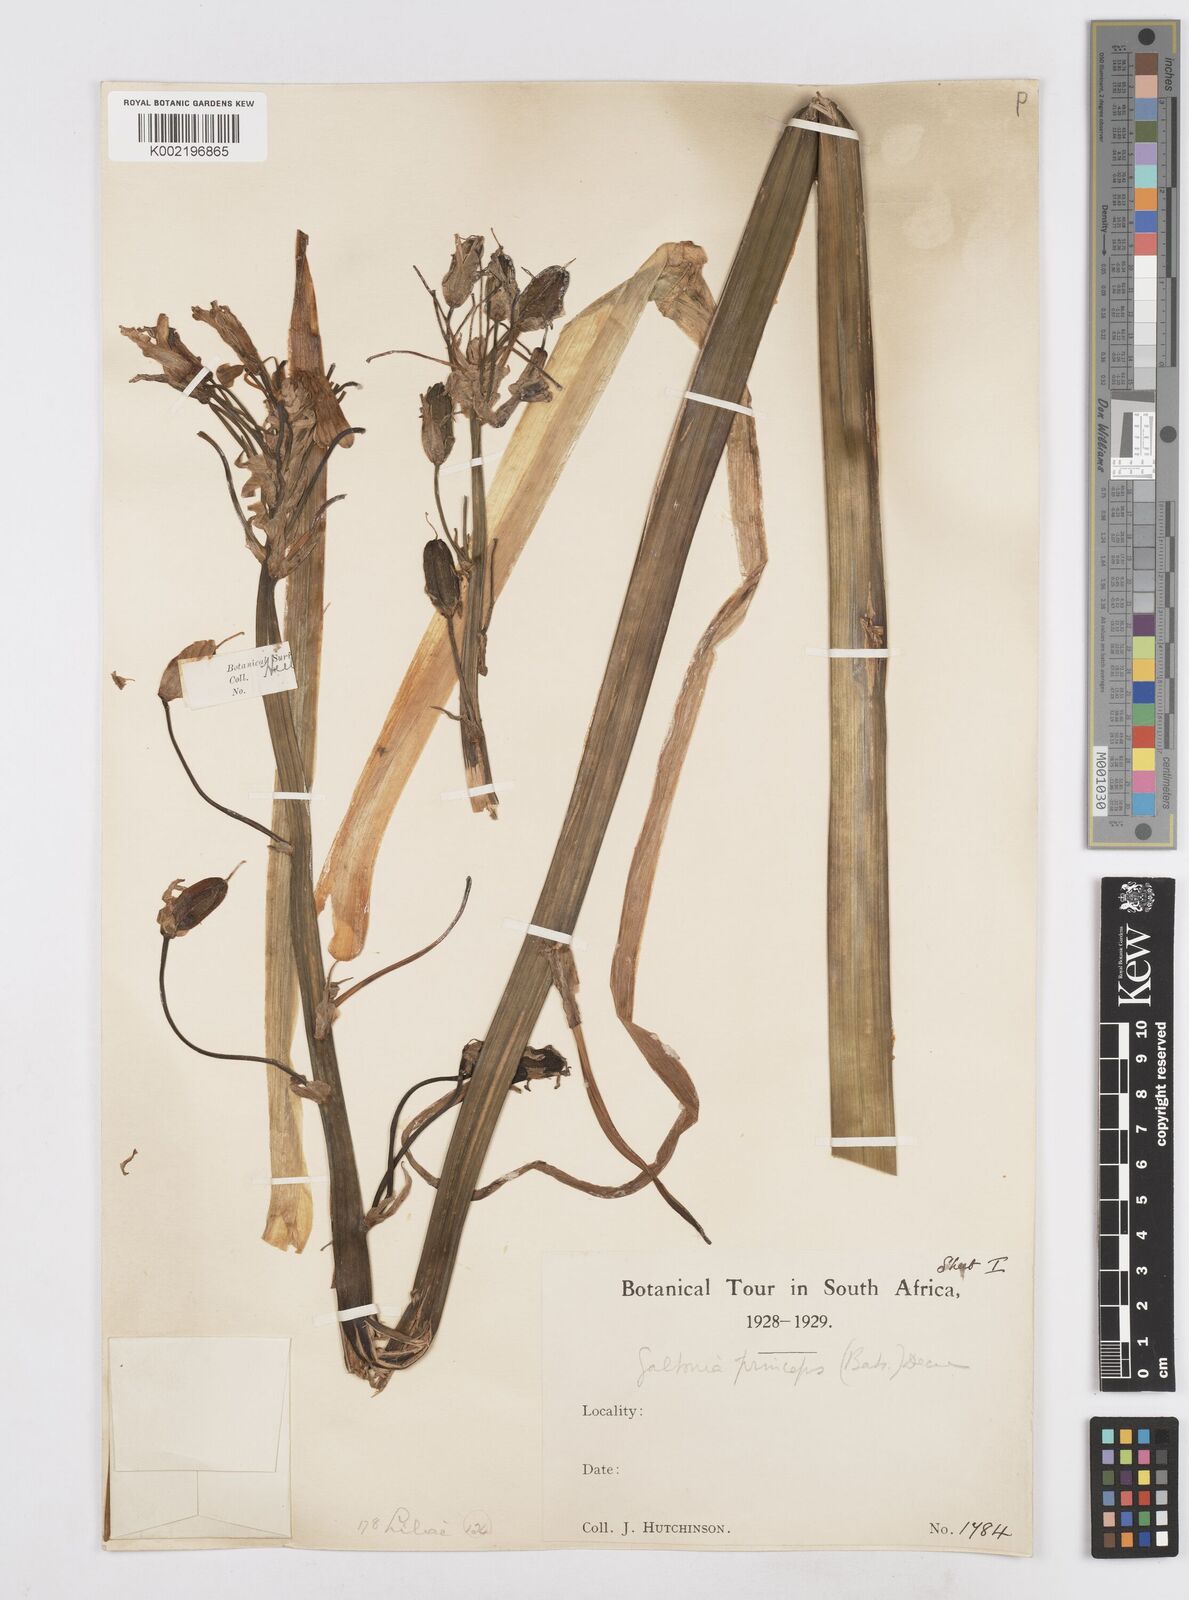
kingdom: Plantae
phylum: Tracheophyta
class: Liliopsida
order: Asparagales
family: Asparagaceae
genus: Ornithogalum
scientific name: Ornithogalum princeps
